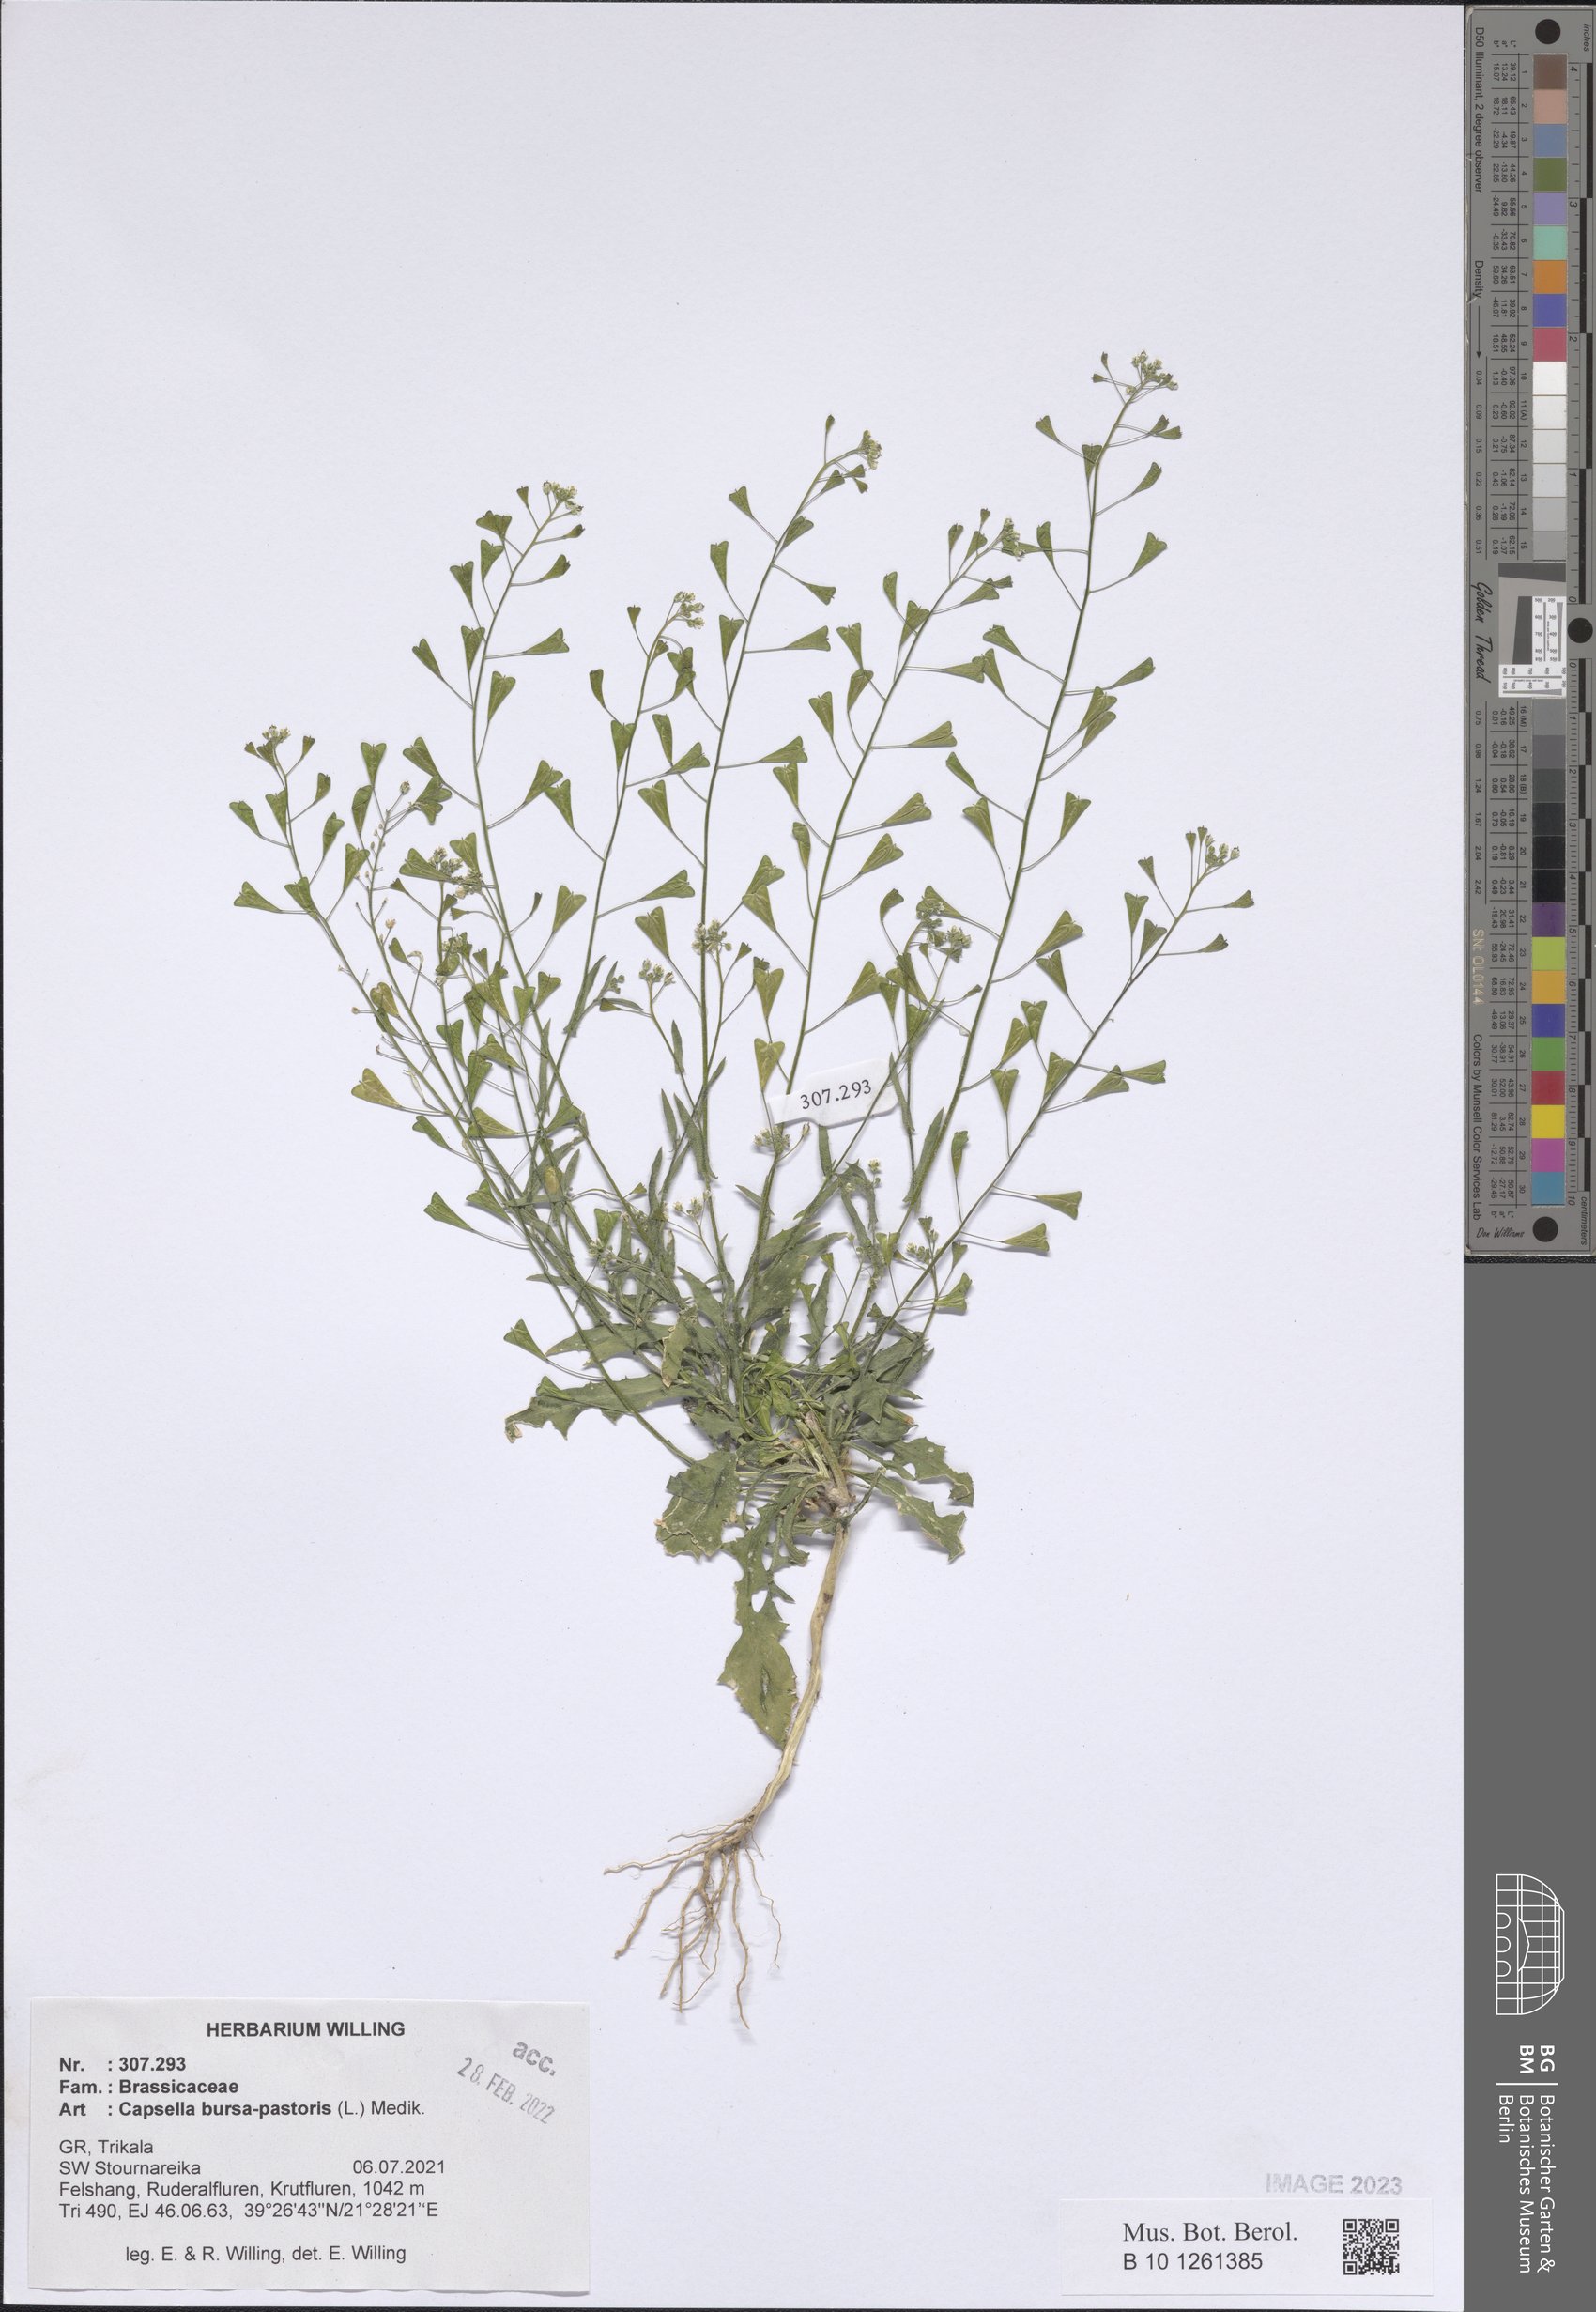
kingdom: Plantae
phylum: Tracheophyta
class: Magnoliopsida
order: Brassicales
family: Brassicaceae
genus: Capsella
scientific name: Capsella bursa-pastoris
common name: Shepherd's purse
